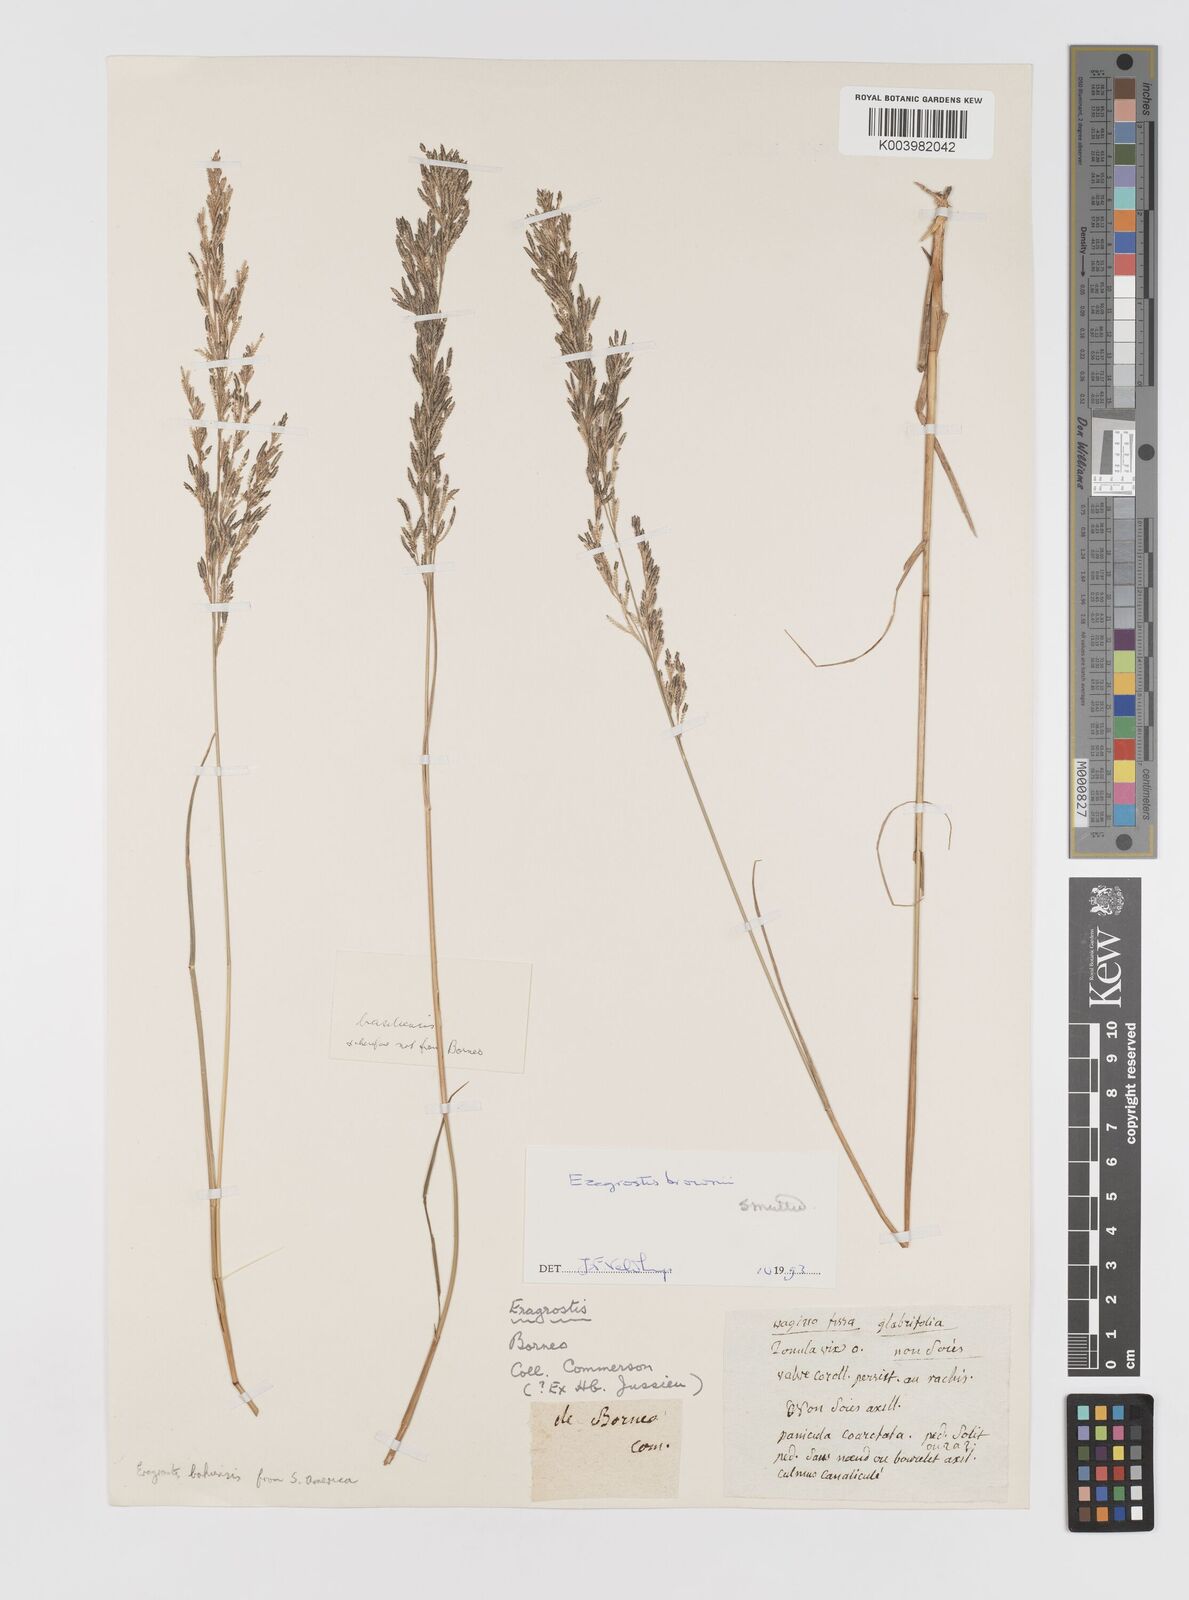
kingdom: Plantae
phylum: Tracheophyta
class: Liliopsida
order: Poales
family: Poaceae
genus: Eragrostis
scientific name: Eragrostis brownii
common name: Lovegrass
